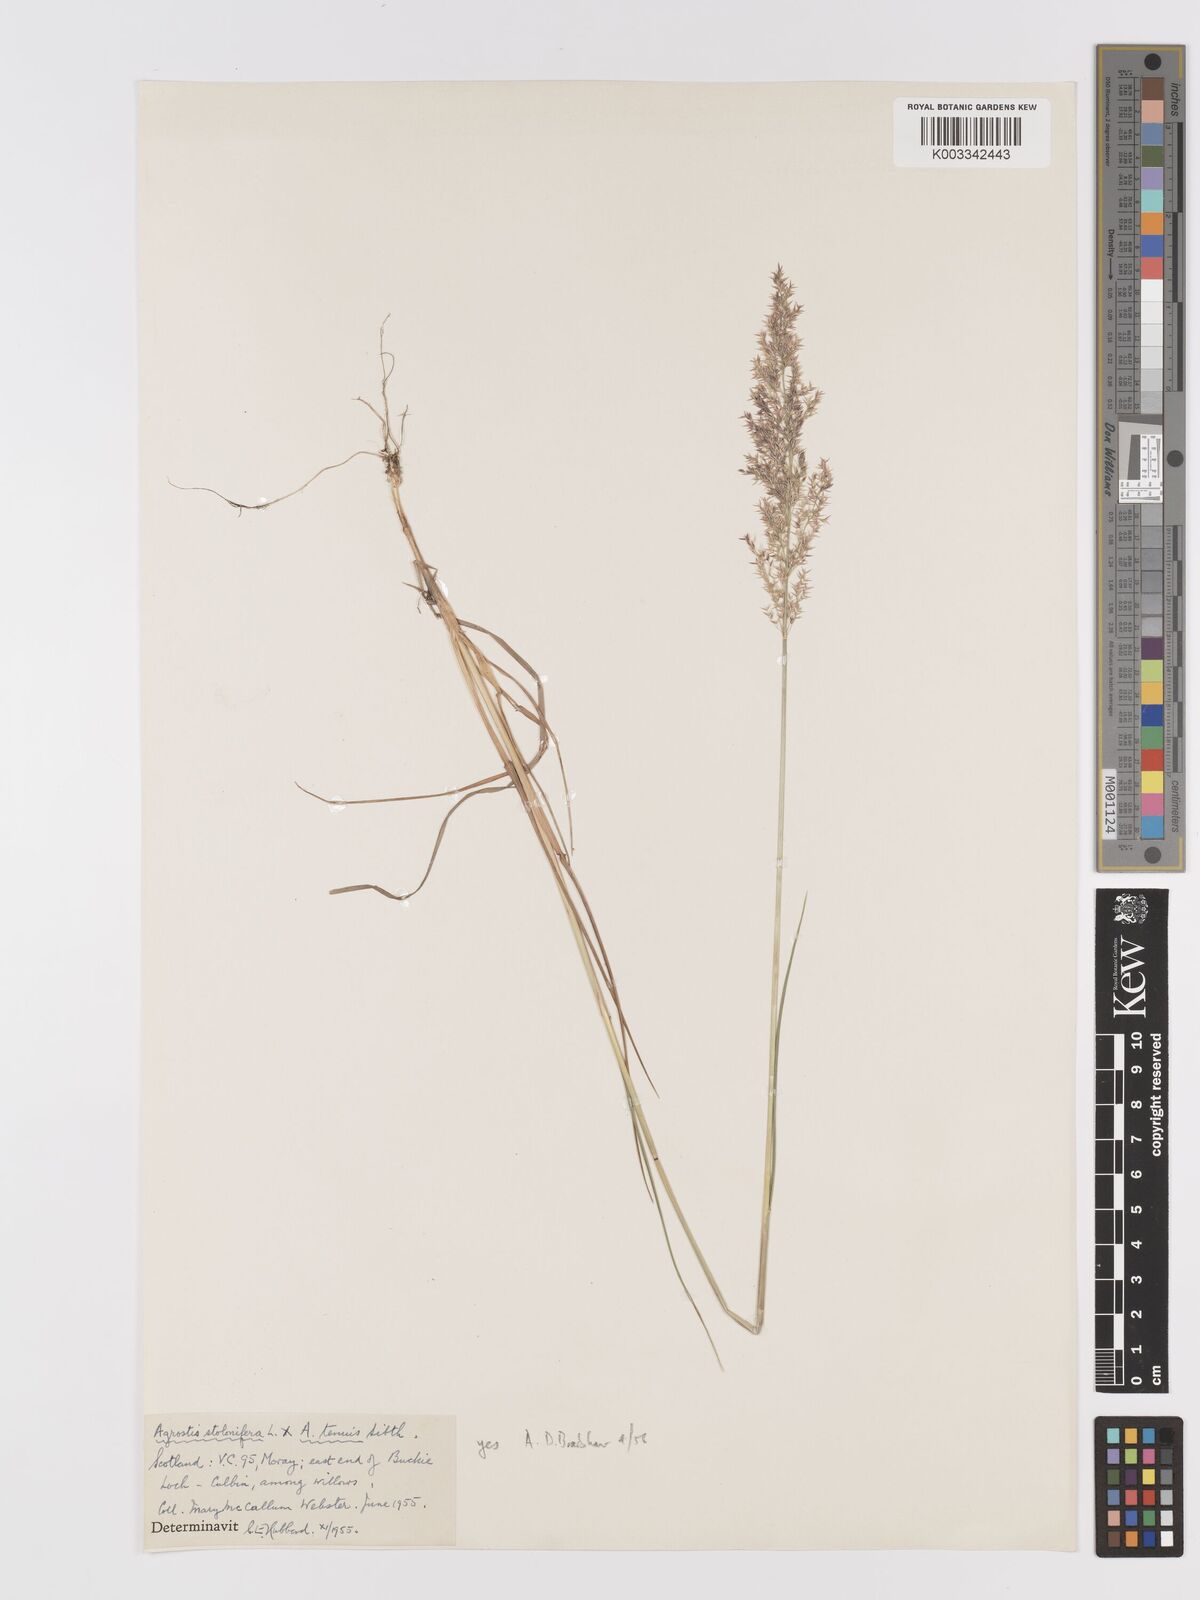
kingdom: Plantae
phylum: Tracheophyta
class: Liliopsida
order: Poales
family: Poaceae
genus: Agrostis
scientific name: Agrostis capillaris
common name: Colonial bentgrass
